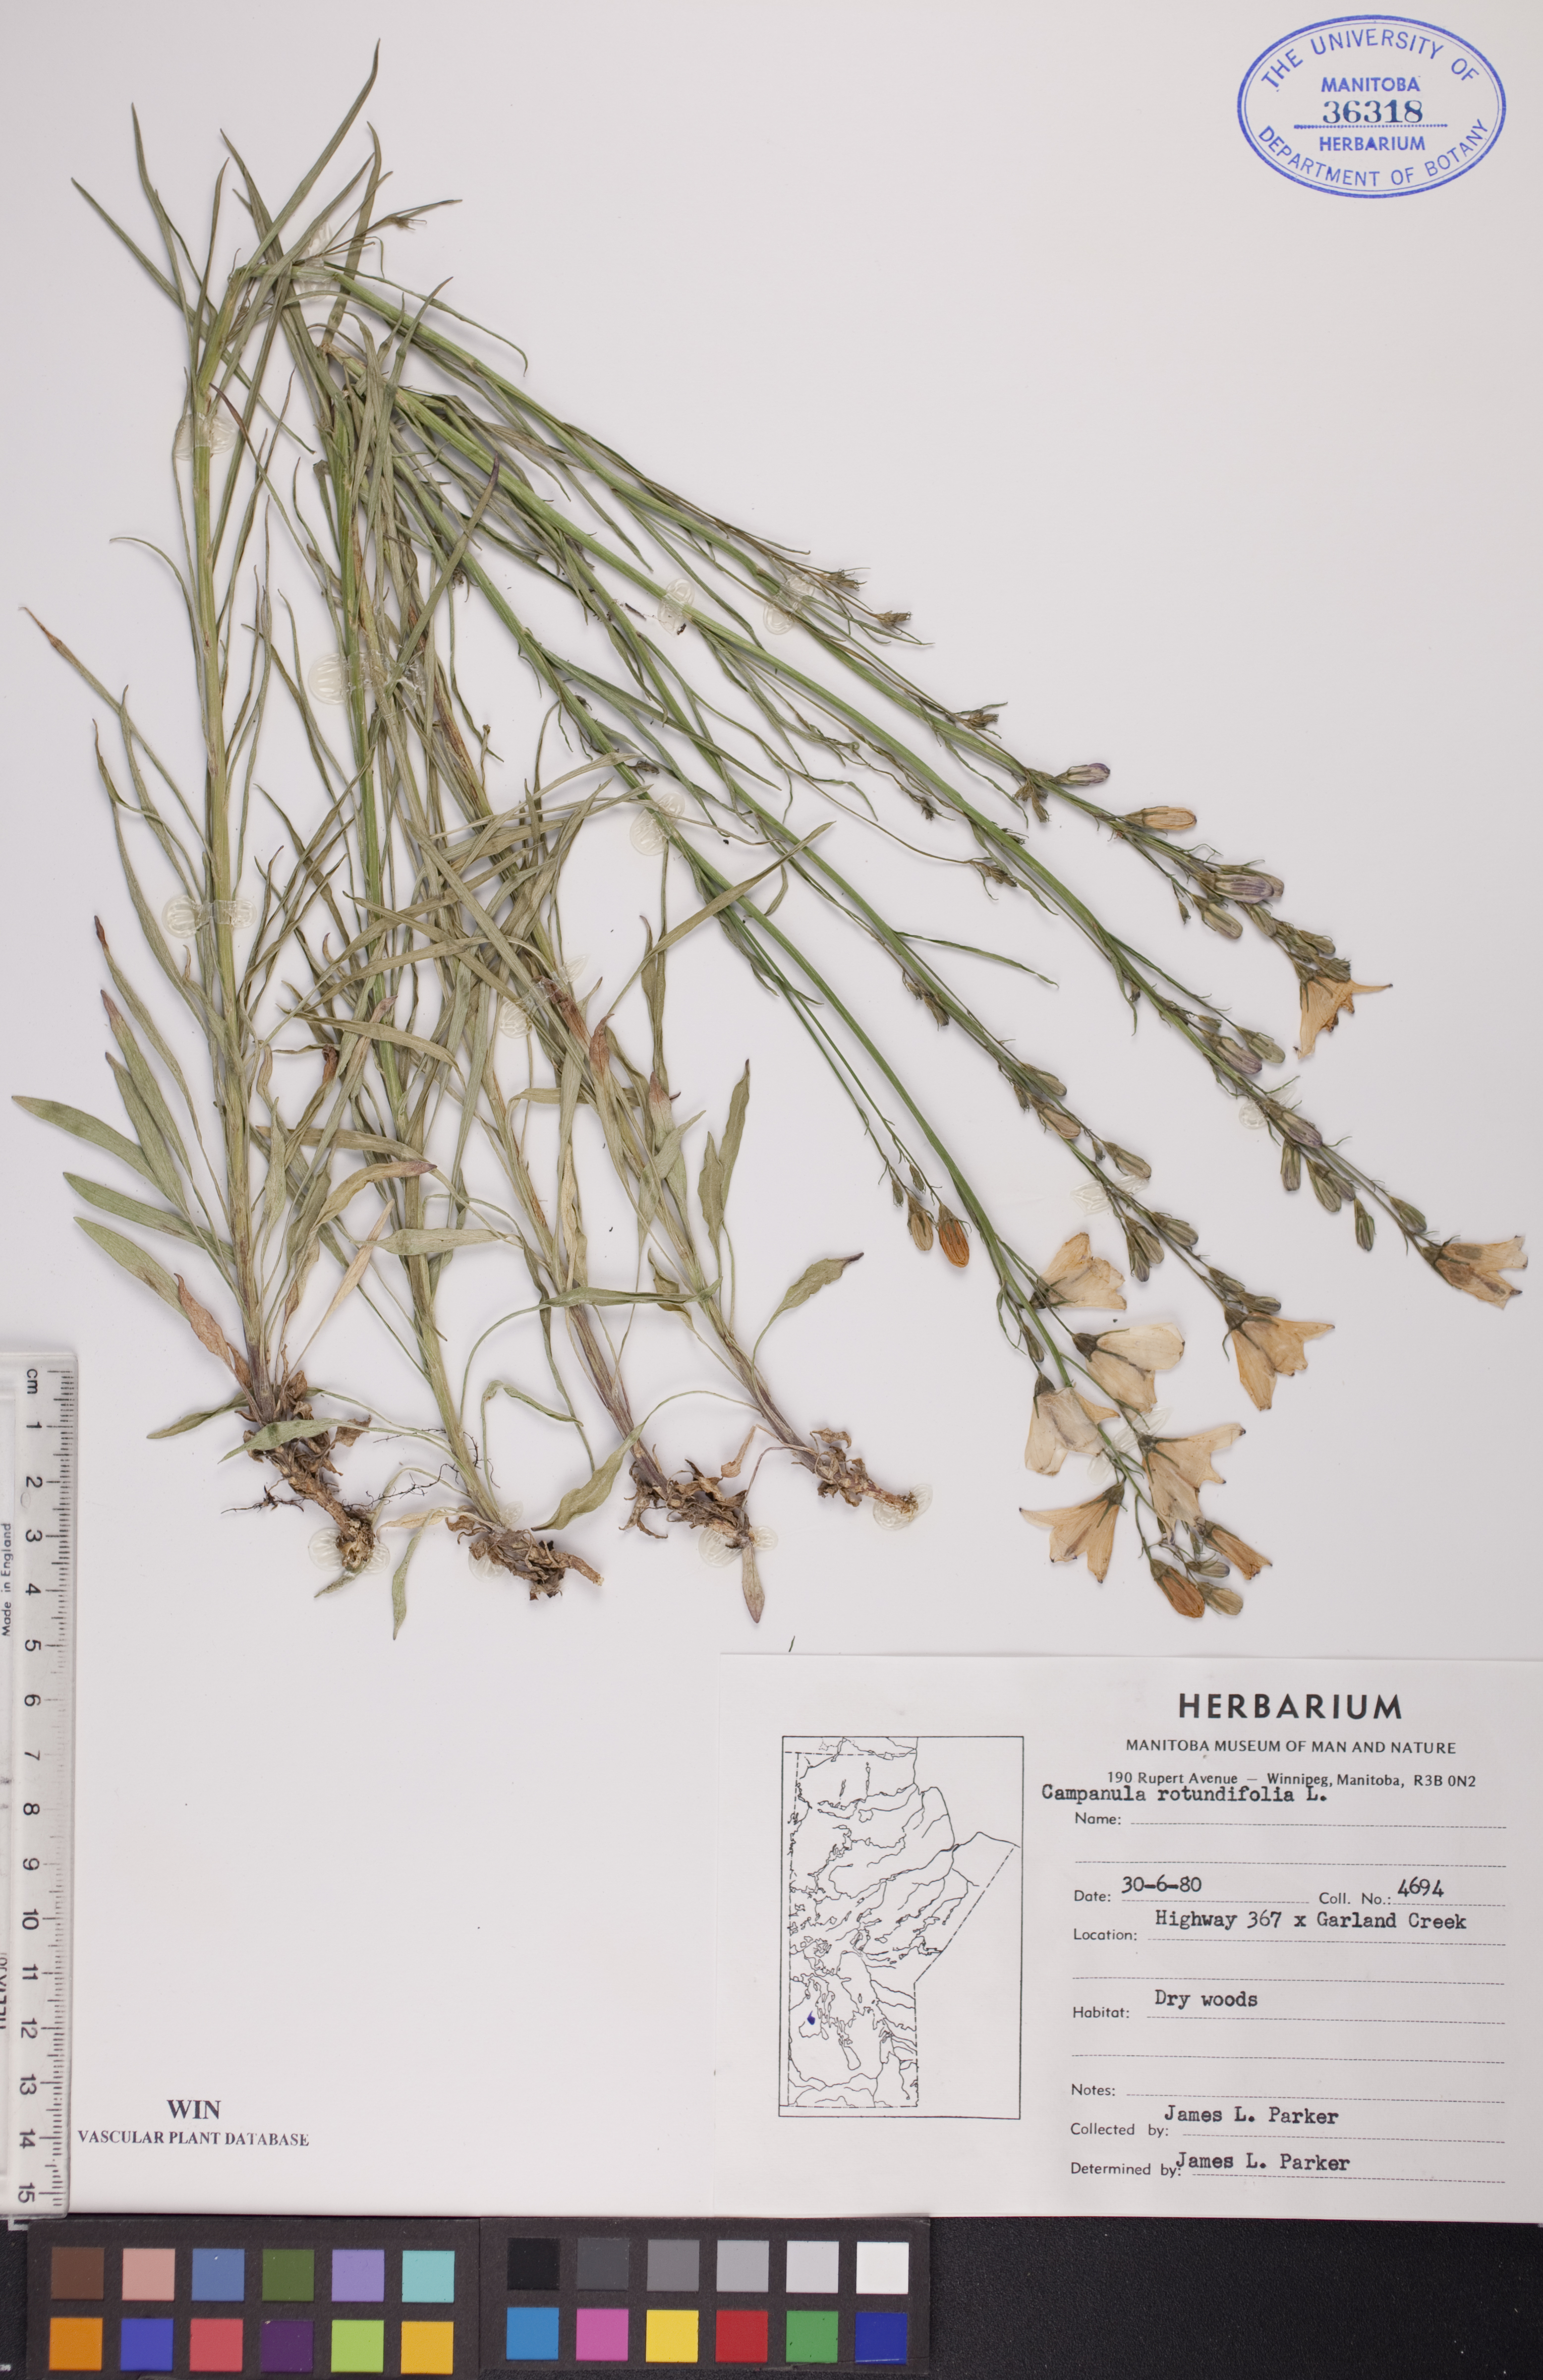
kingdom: Plantae
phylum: Tracheophyta
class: Magnoliopsida
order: Asterales
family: Campanulaceae
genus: Campanula
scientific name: Campanula rotundifolia
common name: Harebell
